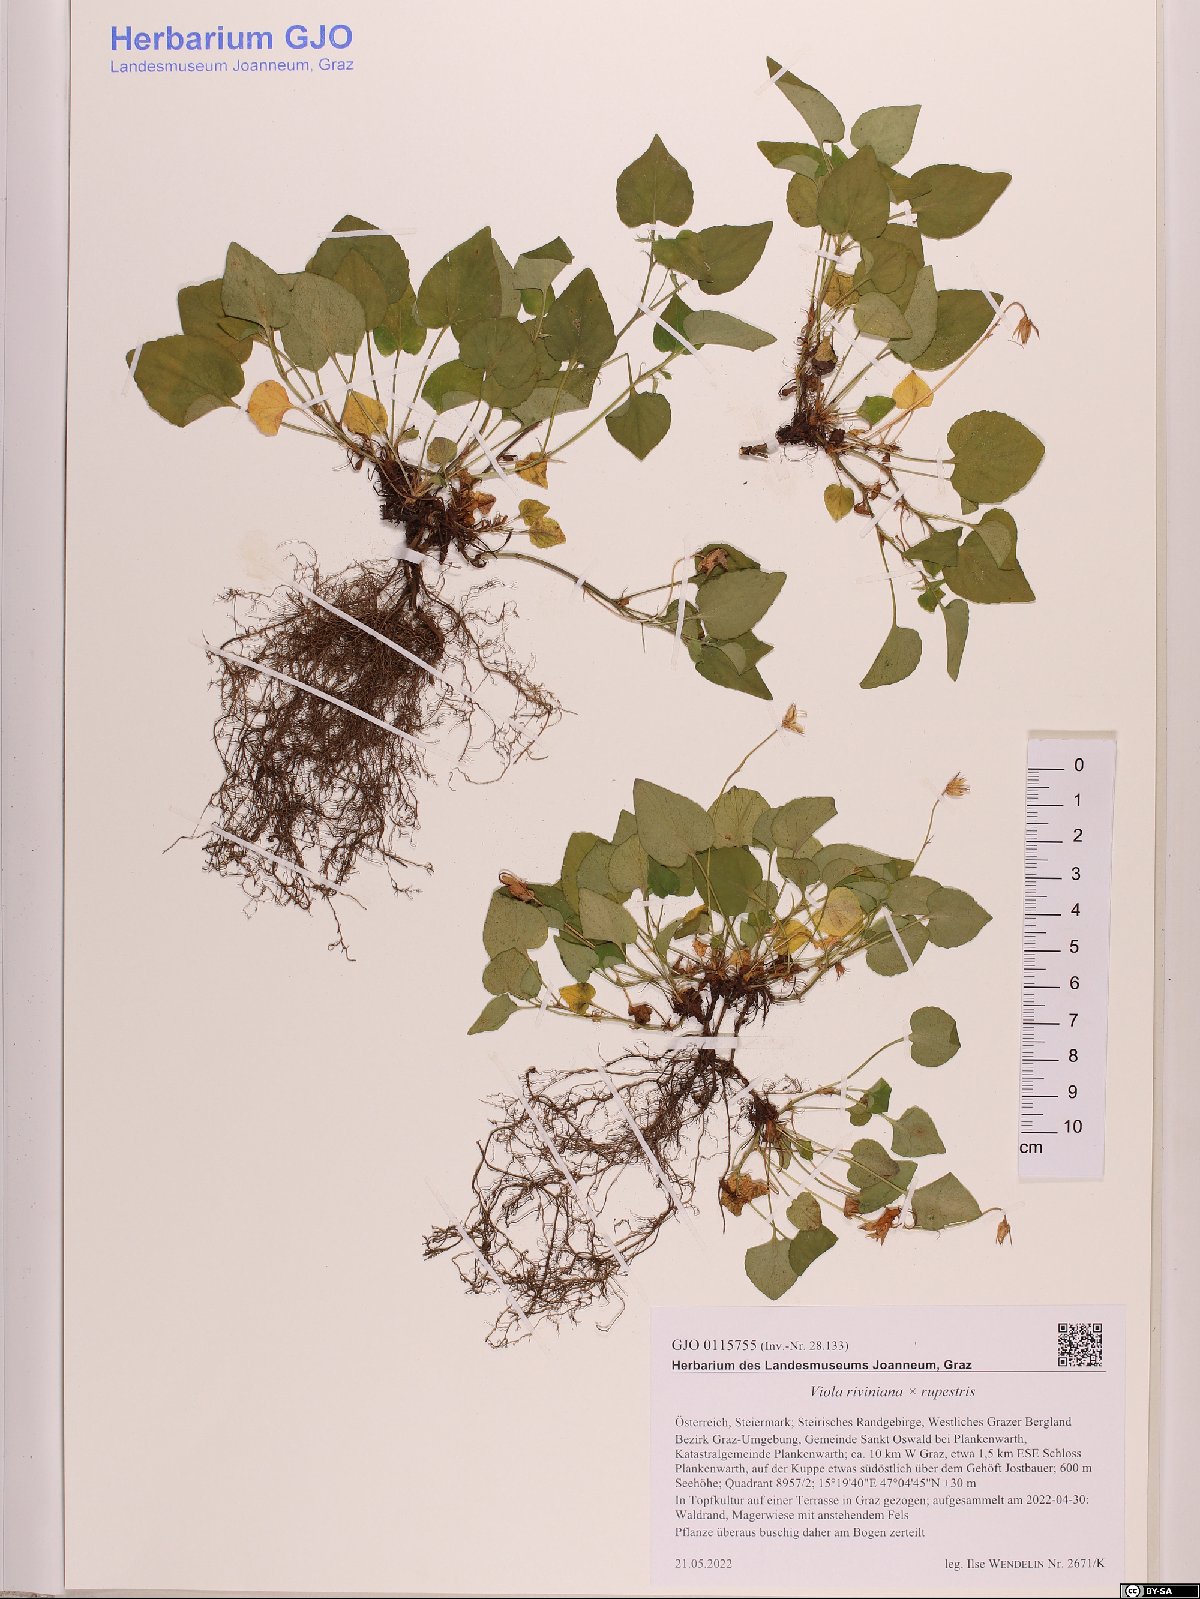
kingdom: Plantae
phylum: Tracheophyta
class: Magnoliopsida
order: Malpighiales
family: Violaceae
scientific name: Violaceae
